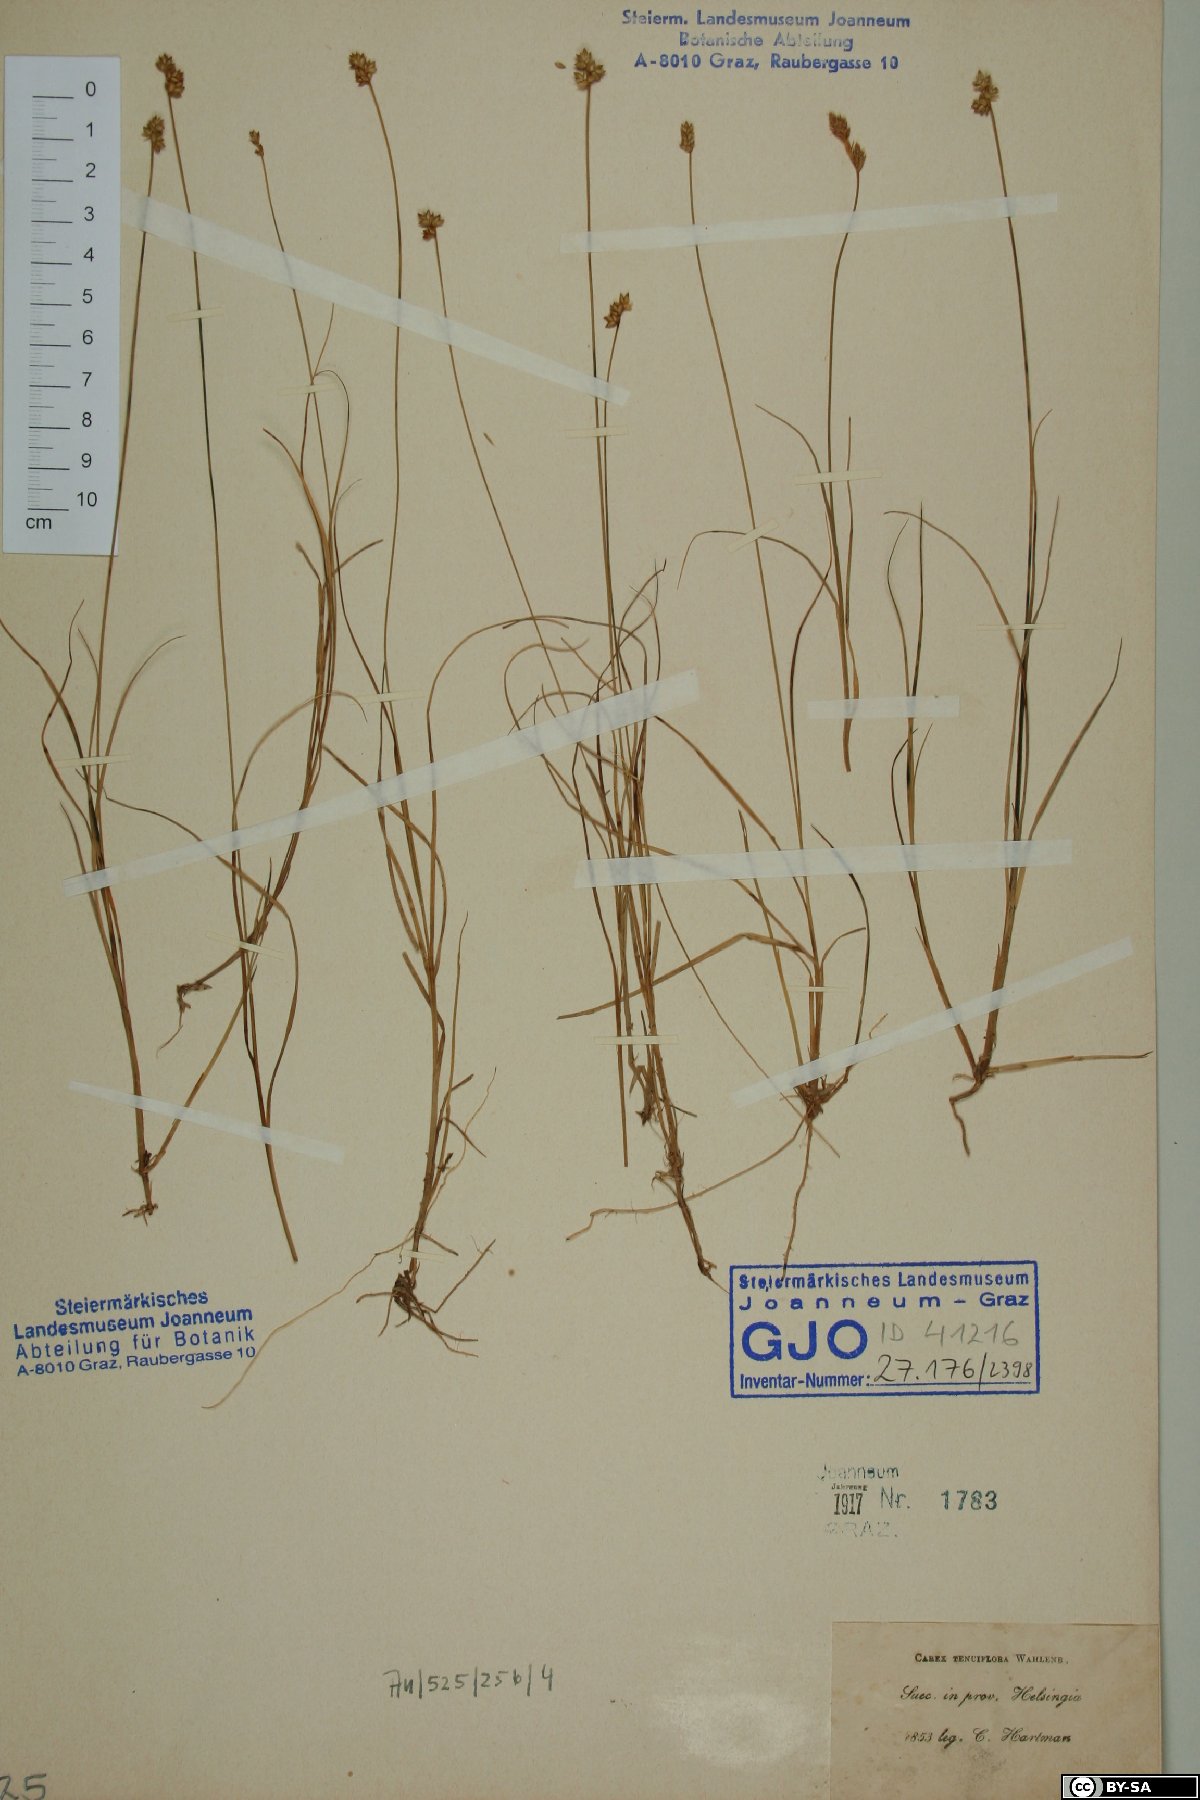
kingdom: Plantae
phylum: Tracheophyta
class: Liliopsida
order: Poales
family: Cyperaceae
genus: Carex
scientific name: Carex tenuiflora
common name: Sparse-flowered sedge
